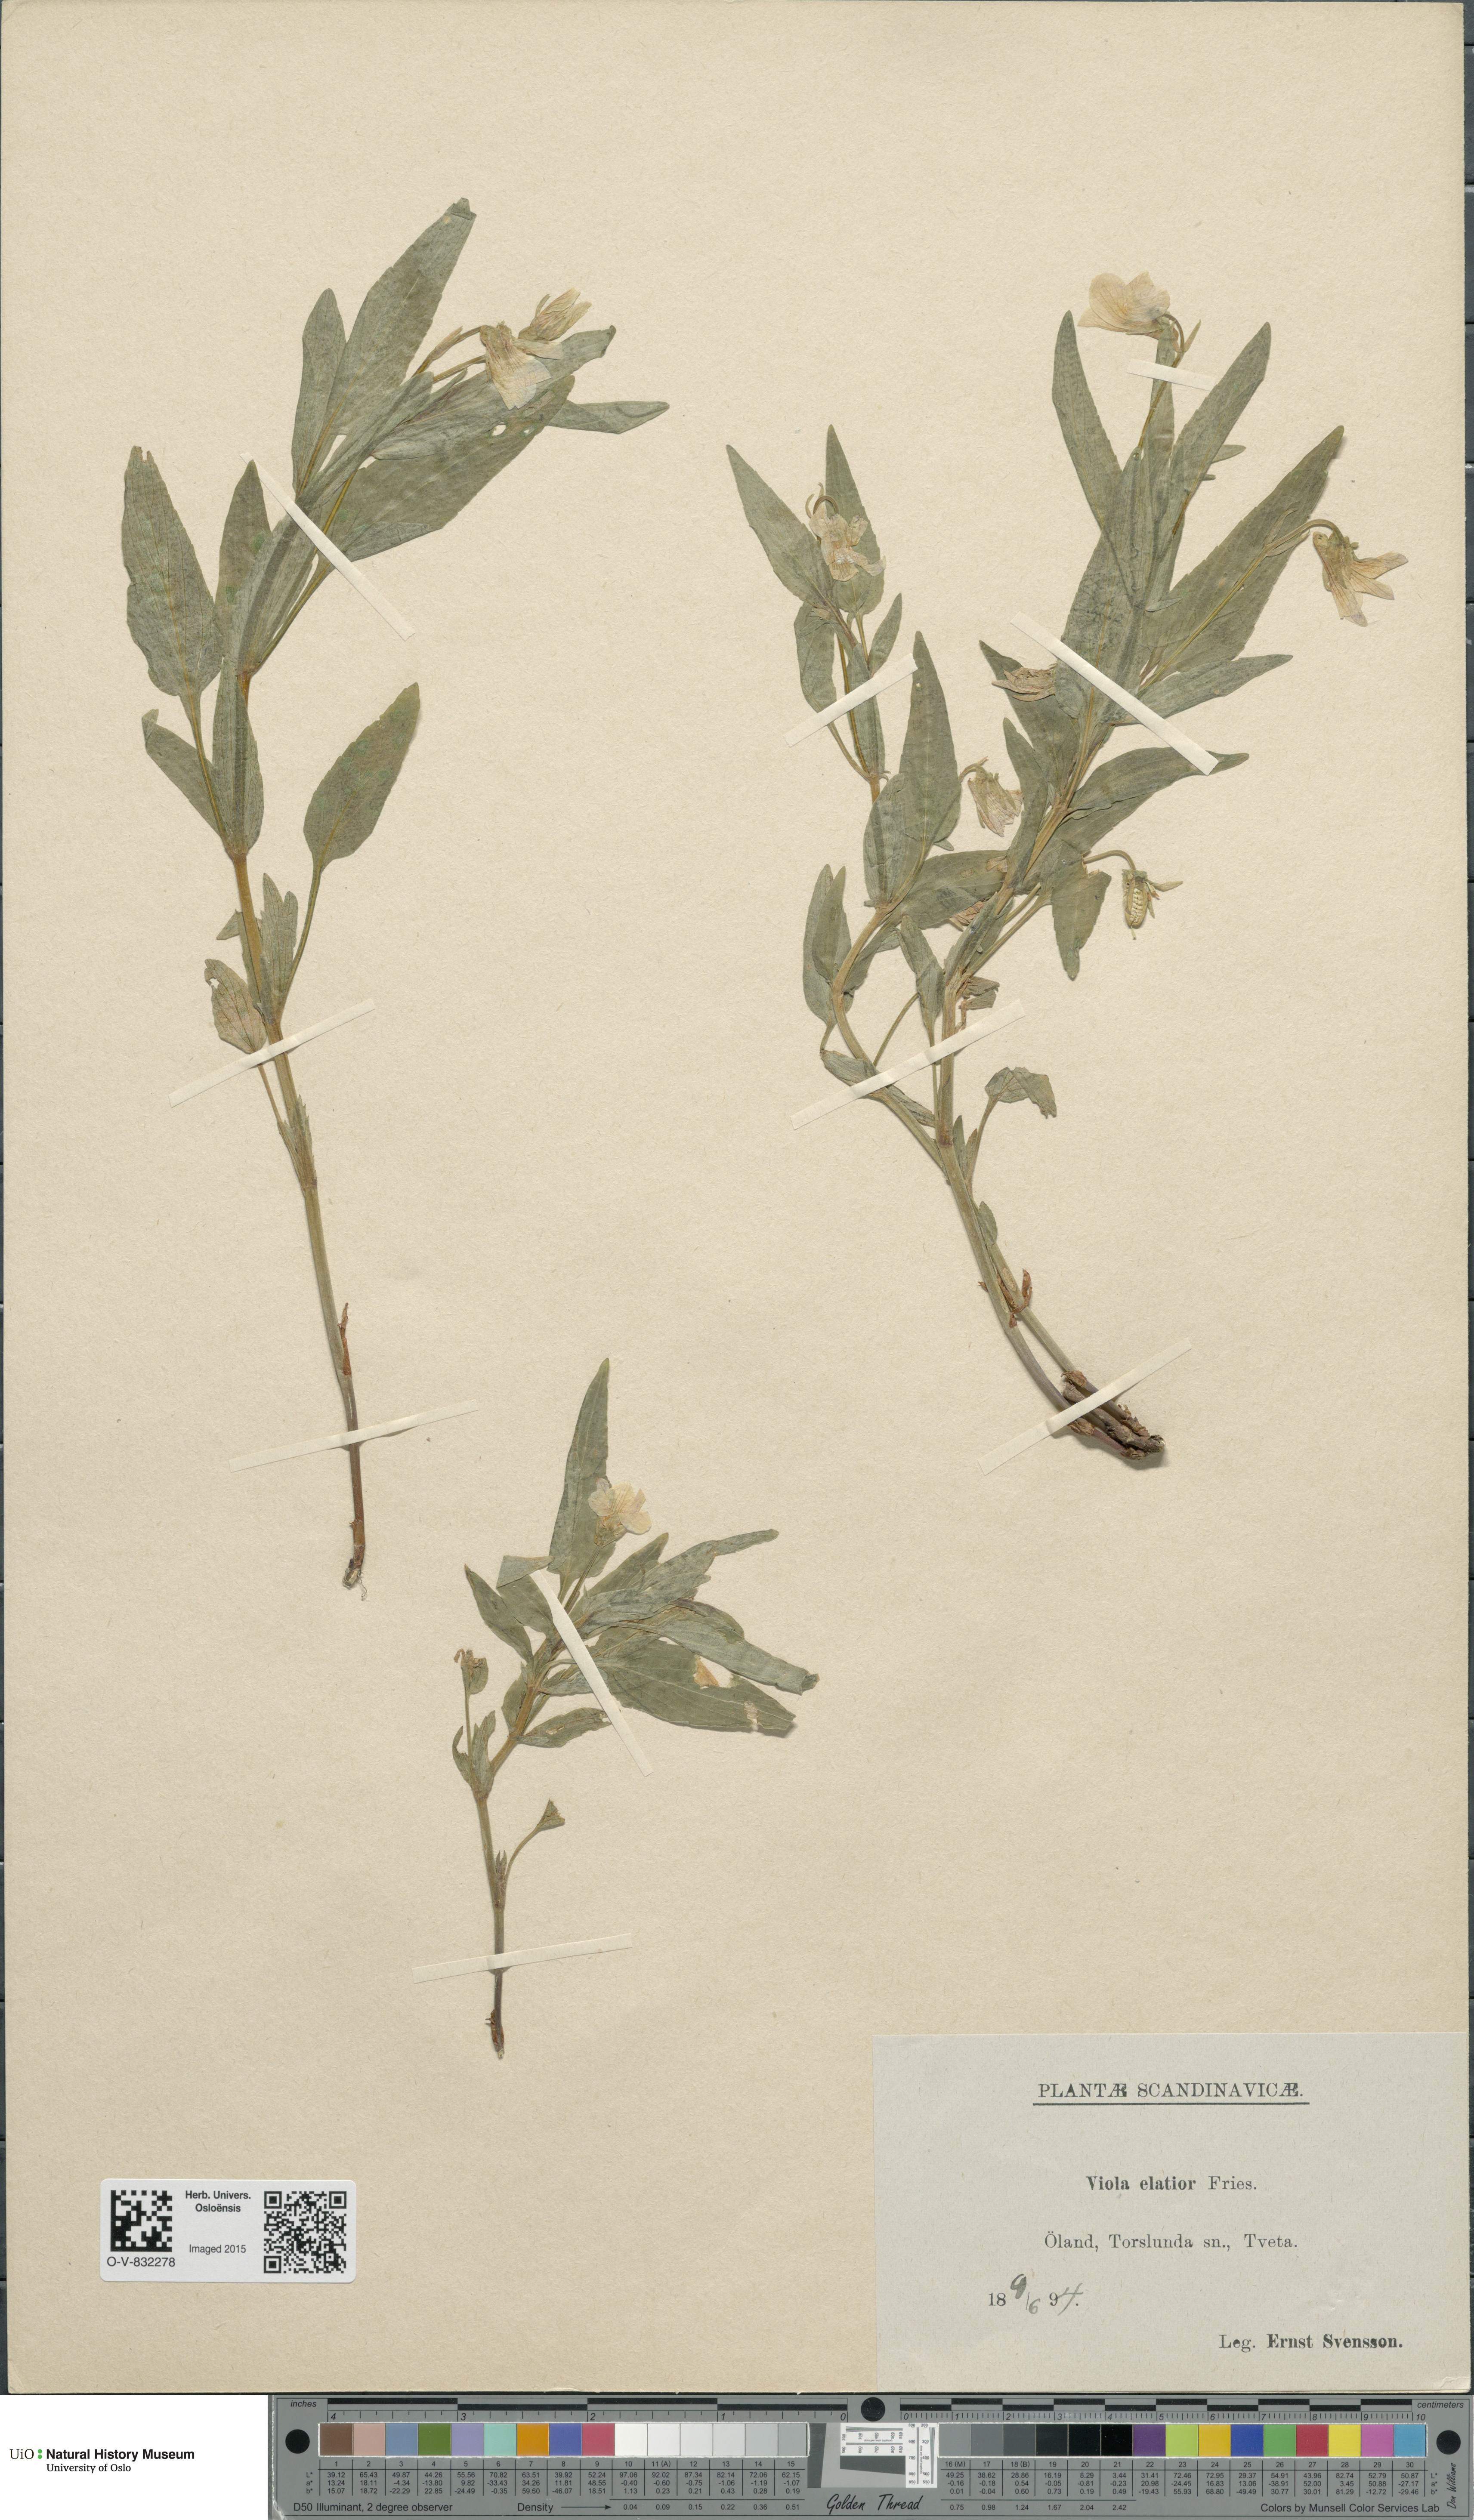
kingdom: Plantae
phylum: Tracheophyta
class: Magnoliopsida
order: Malpighiales
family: Violaceae
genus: Viola
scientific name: Viola elatior
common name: Tall violet
